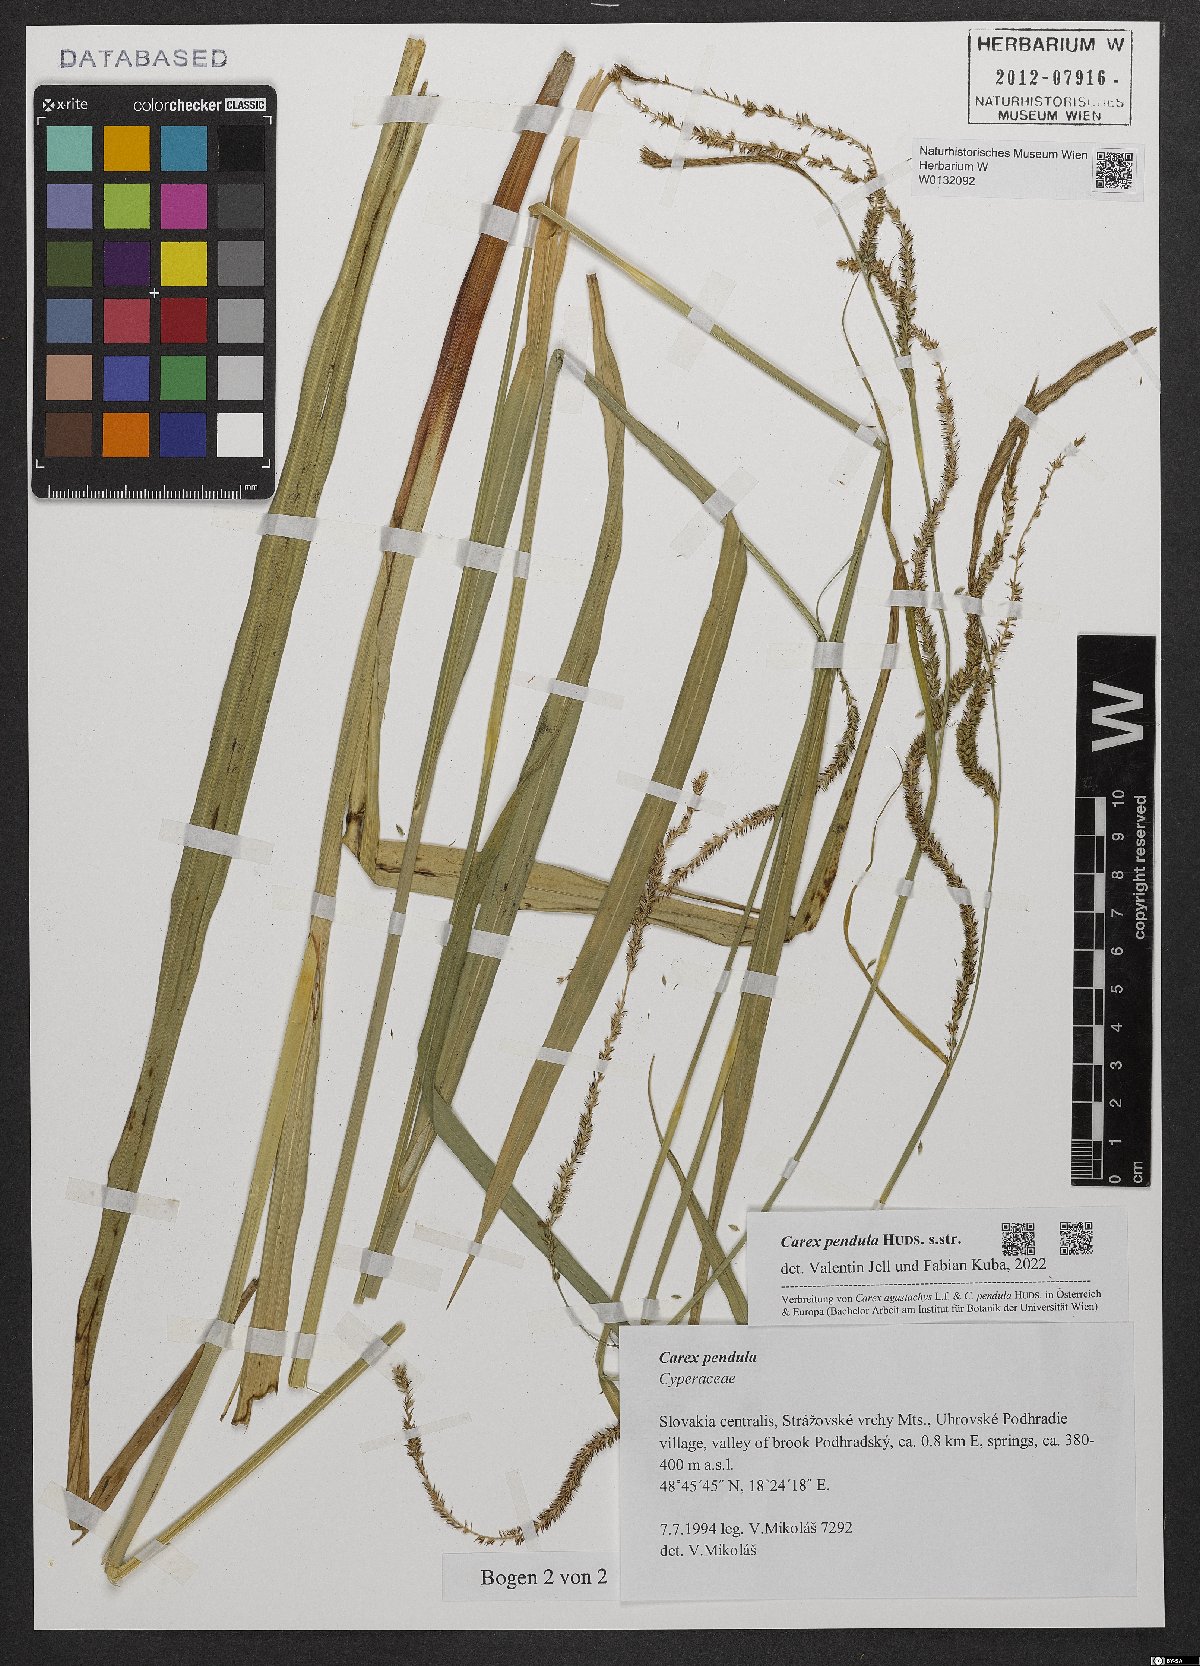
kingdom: Plantae
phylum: Tracheophyta
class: Liliopsida
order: Poales
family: Cyperaceae
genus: Carex
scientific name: Carex pendula
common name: Pendulous sedge
